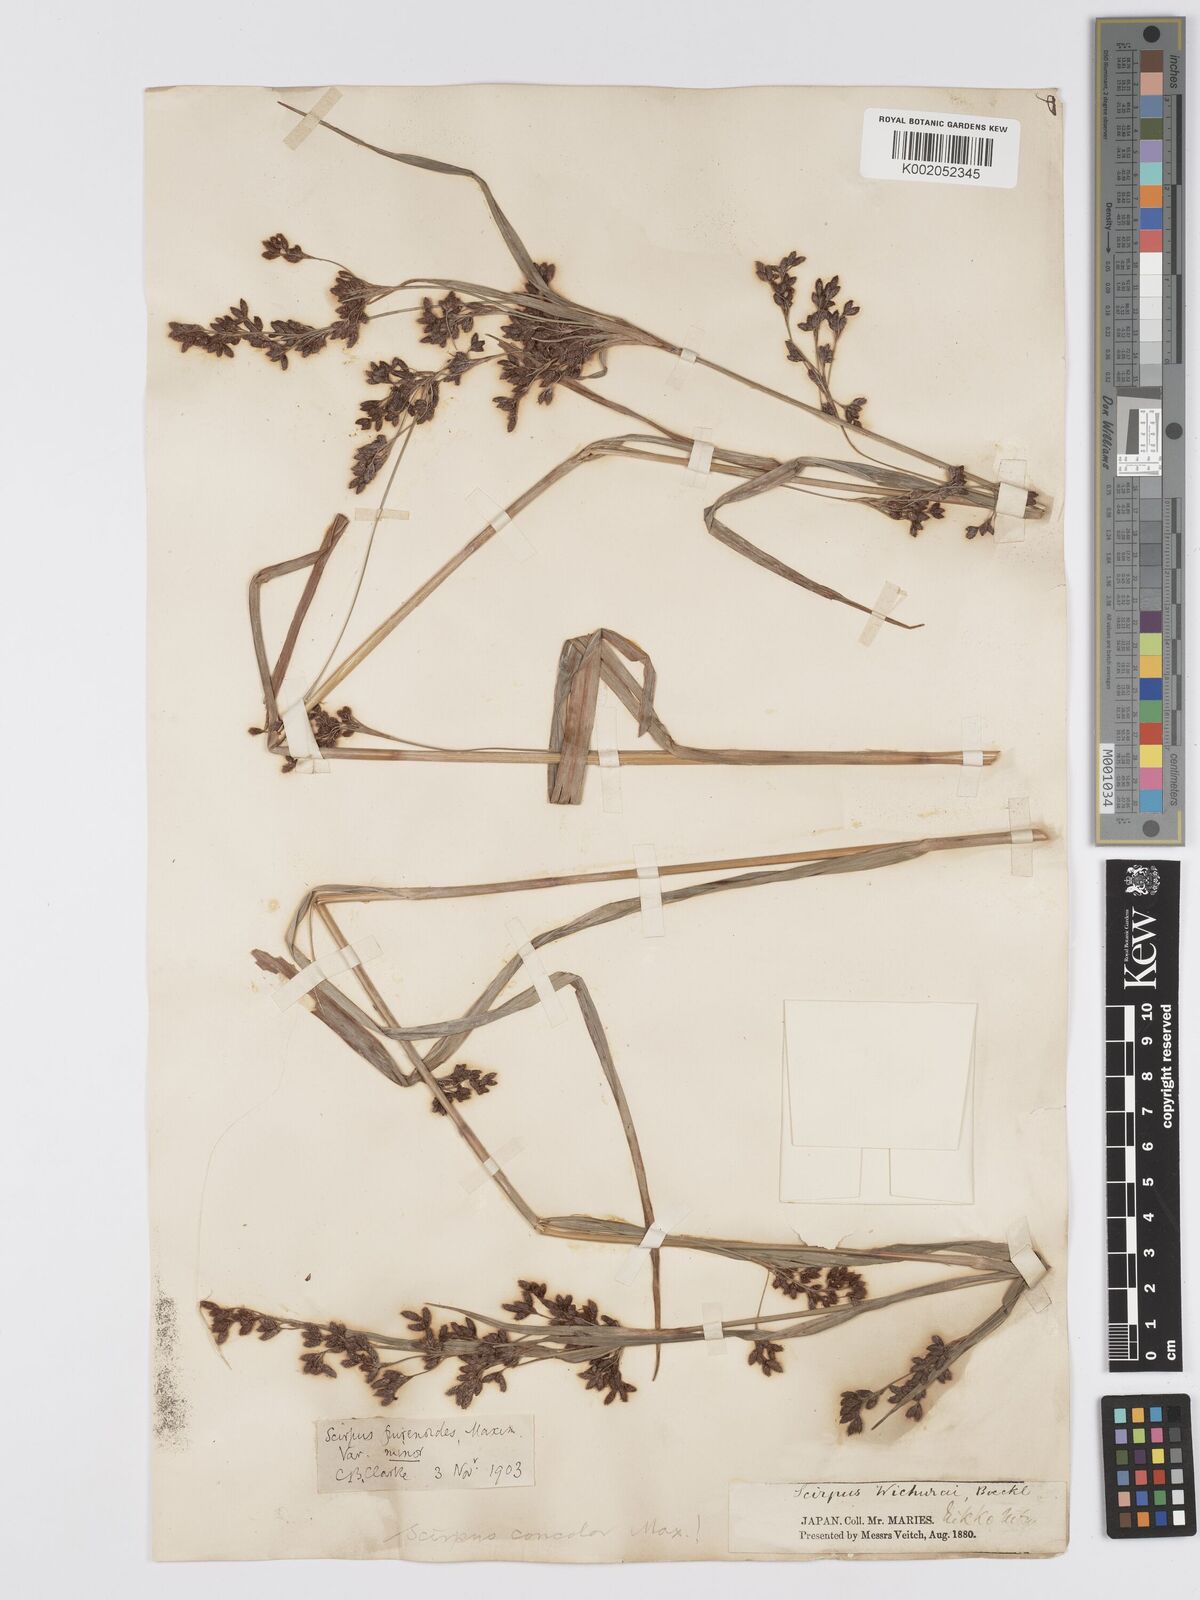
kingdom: Plantae
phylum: Tracheophyta
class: Liliopsida
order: Poales
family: Cyperaceae
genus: Scirpus
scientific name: Scirpus fuirenoides
